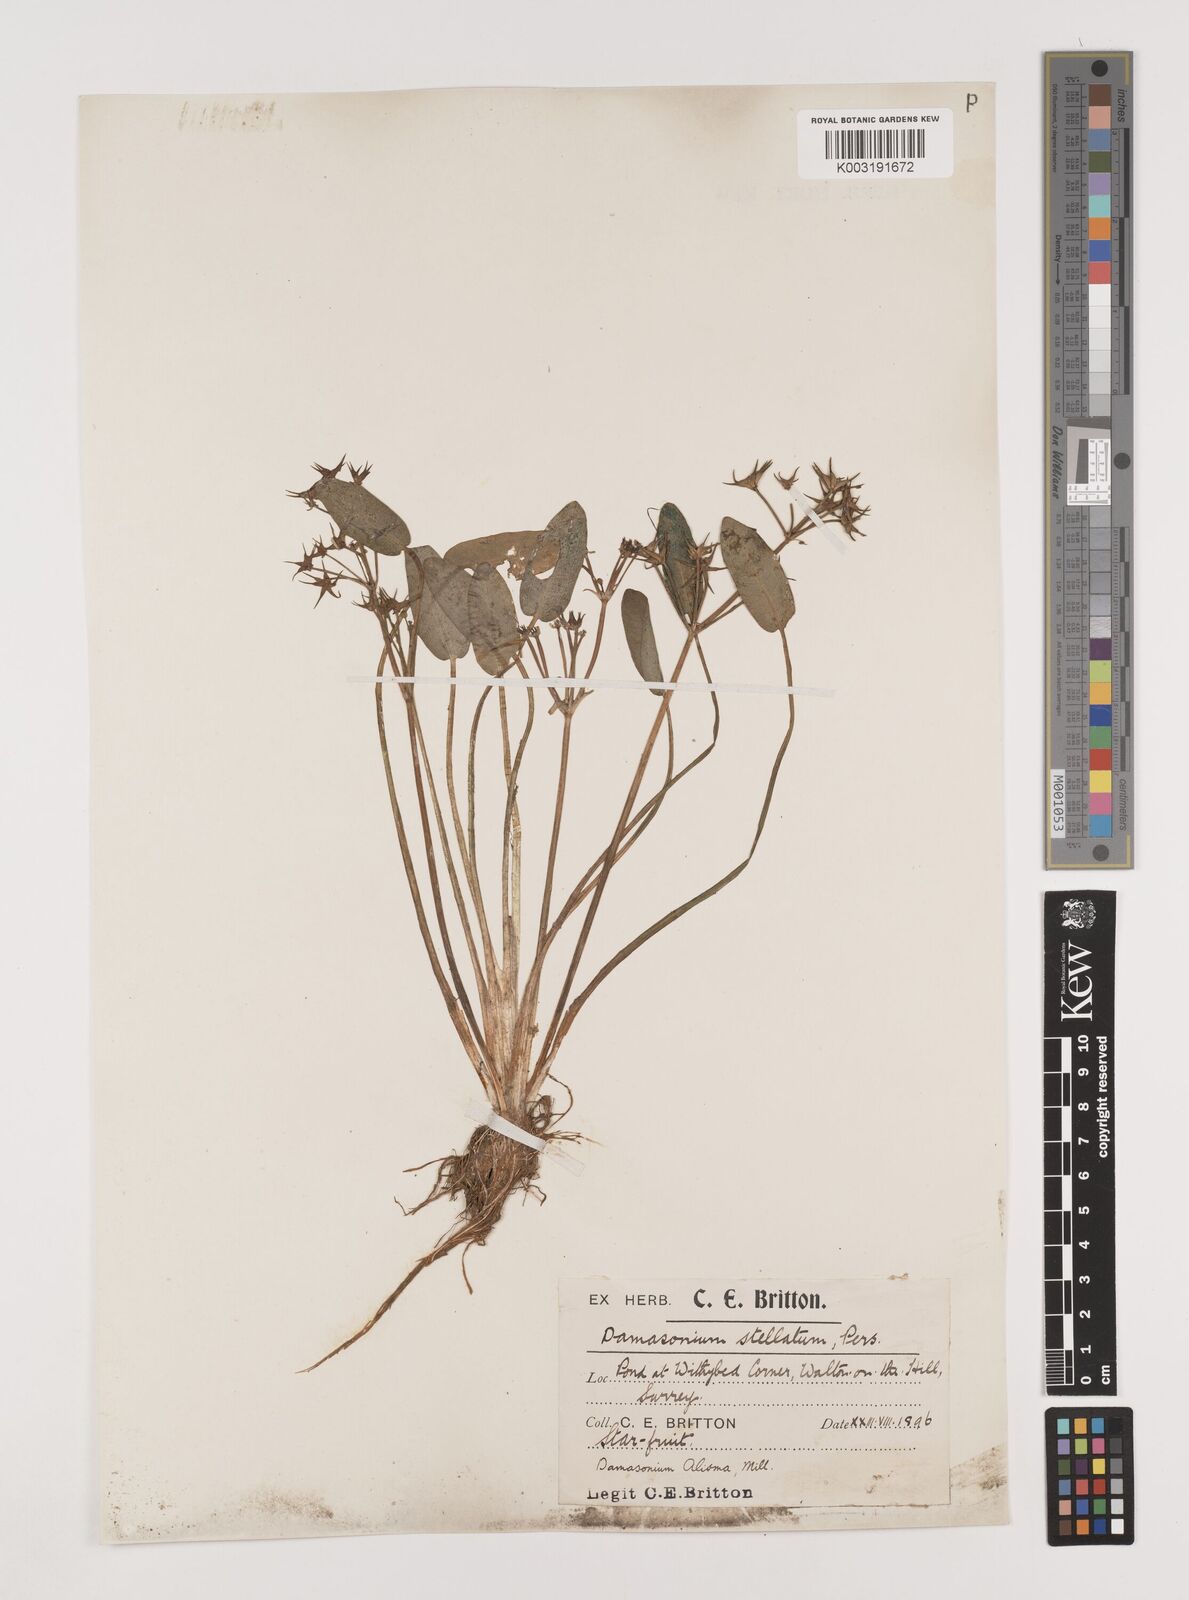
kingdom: Plantae
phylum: Tracheophyta
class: Liliopsida
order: Alismatales
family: Alismataceae
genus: Damasonium
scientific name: Damasonium alisma
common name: Starfruit
